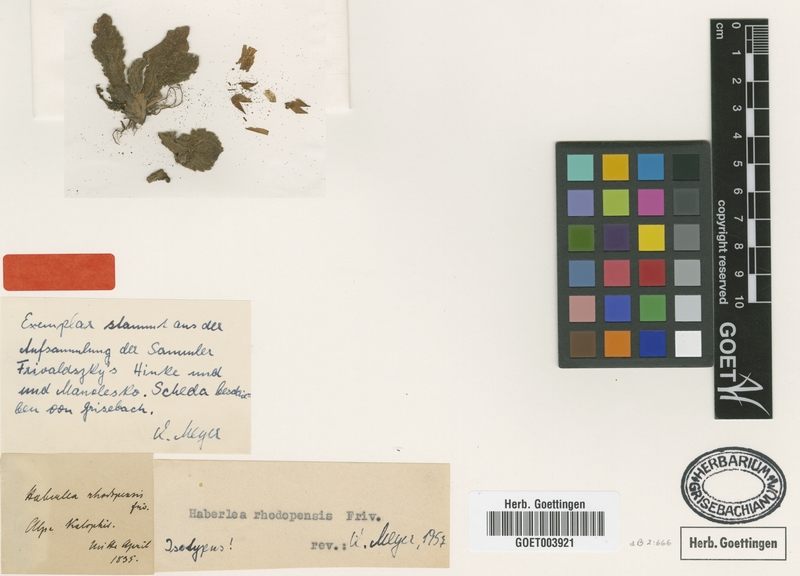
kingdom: Plantae
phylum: Tracheophyta
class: Magnoliopsida
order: Lamiales
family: Gesneriaceae
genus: Haberlea
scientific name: Haberlea rhodopensis
